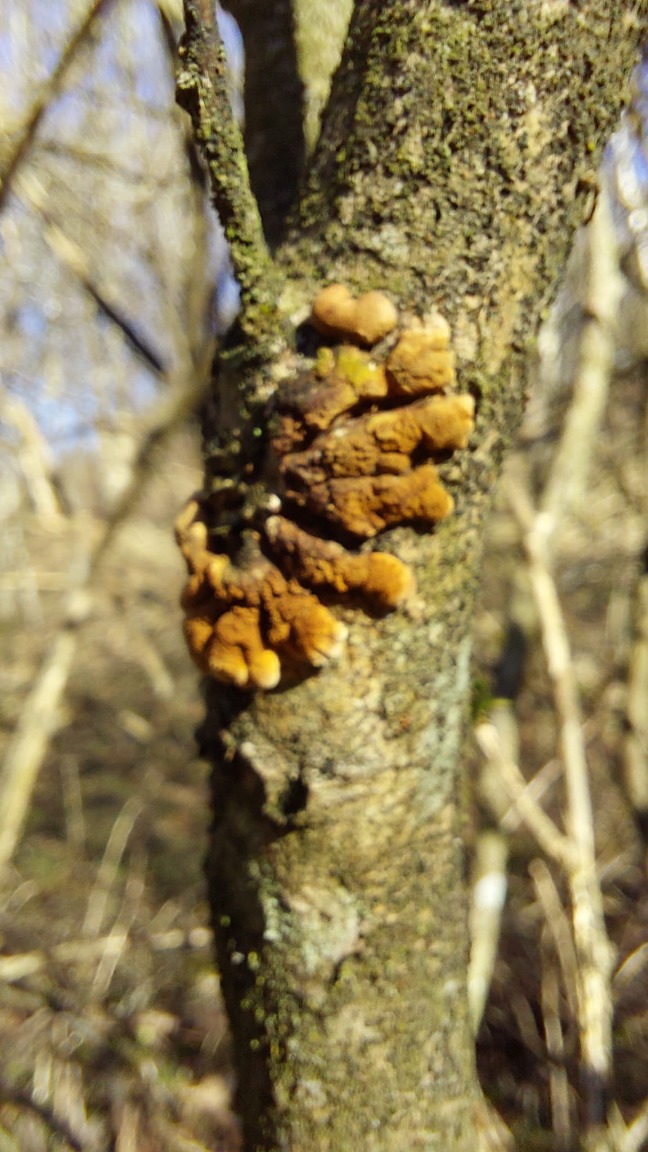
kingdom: Fungi
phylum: Ascomycota
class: Sordariomycetes
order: Hypocreales
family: Hypocreaceae
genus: Hypocreopsis
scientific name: Hypocreopsis lichenoides
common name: Pilfinger
